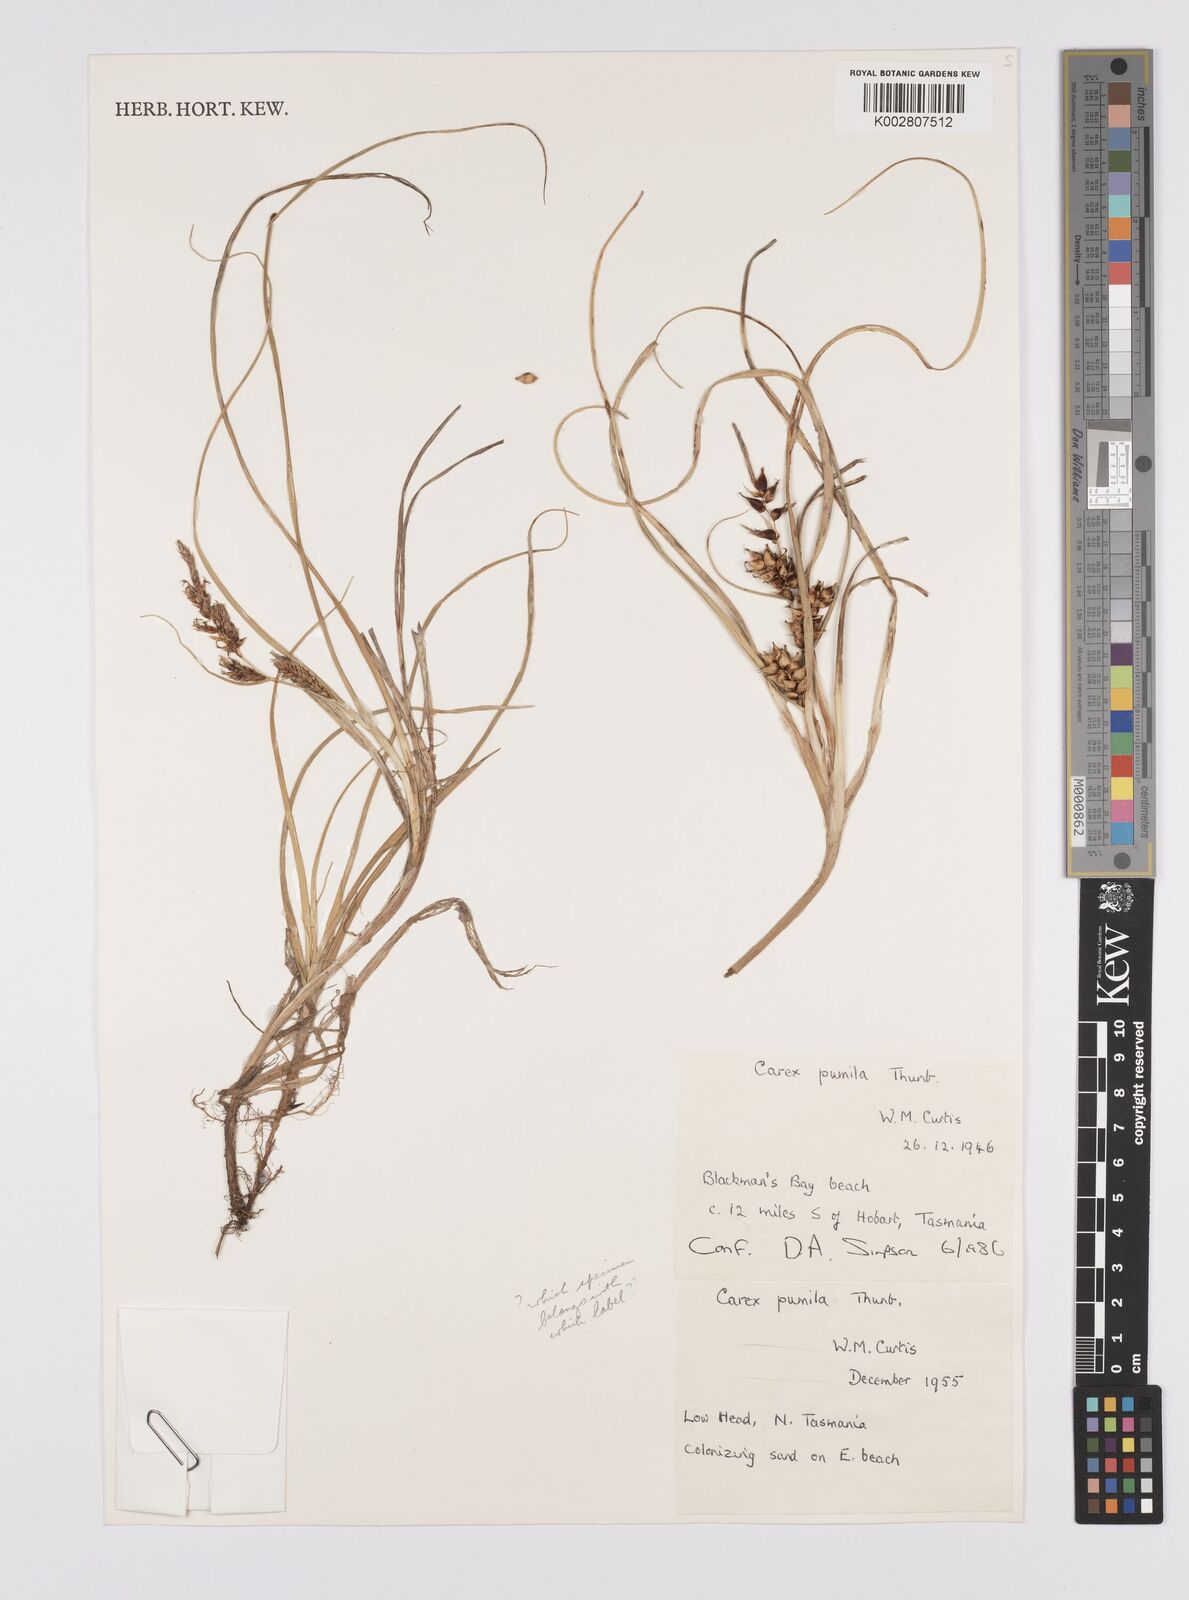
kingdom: Plantae
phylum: Tracheophyta
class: Liliopsida
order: Poales
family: Cyperaceae
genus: Carex
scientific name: Carex pumila
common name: Dwarf sedge
